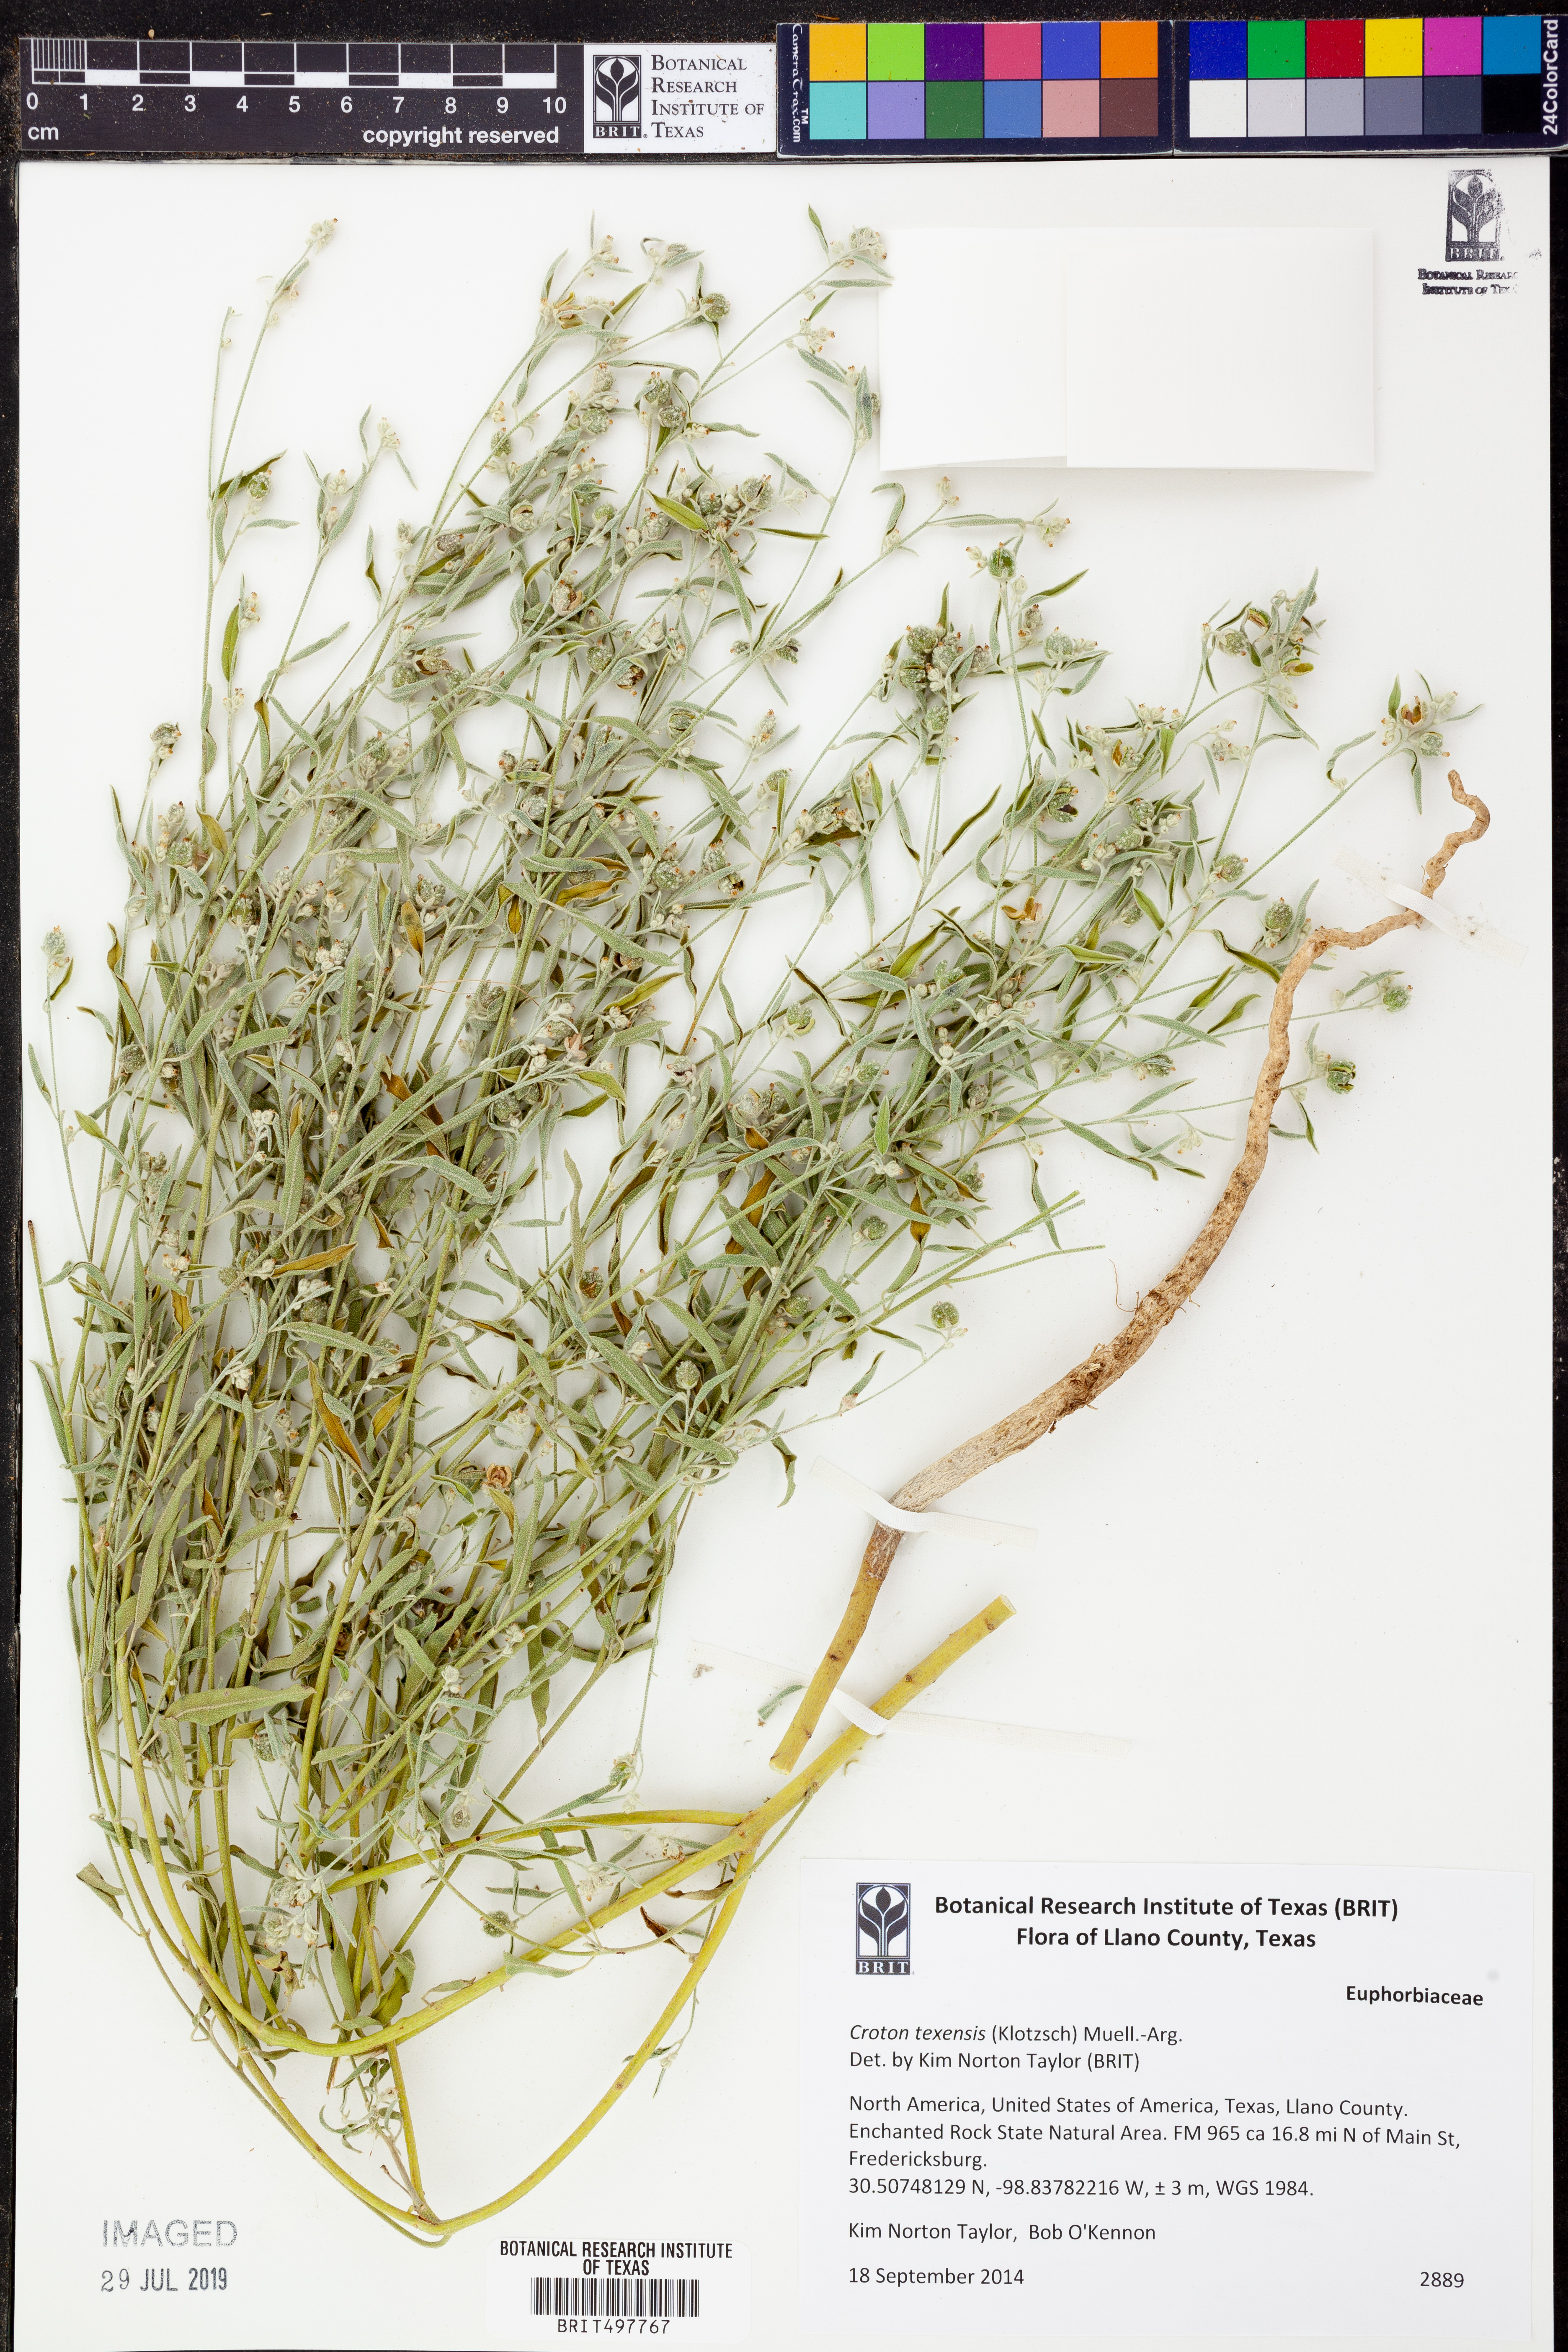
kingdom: Plantae
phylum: Tracheophyta
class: Magnoliopsida
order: Malpighiales
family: Euphorbiaceae
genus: Croton
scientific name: Croton texensis
